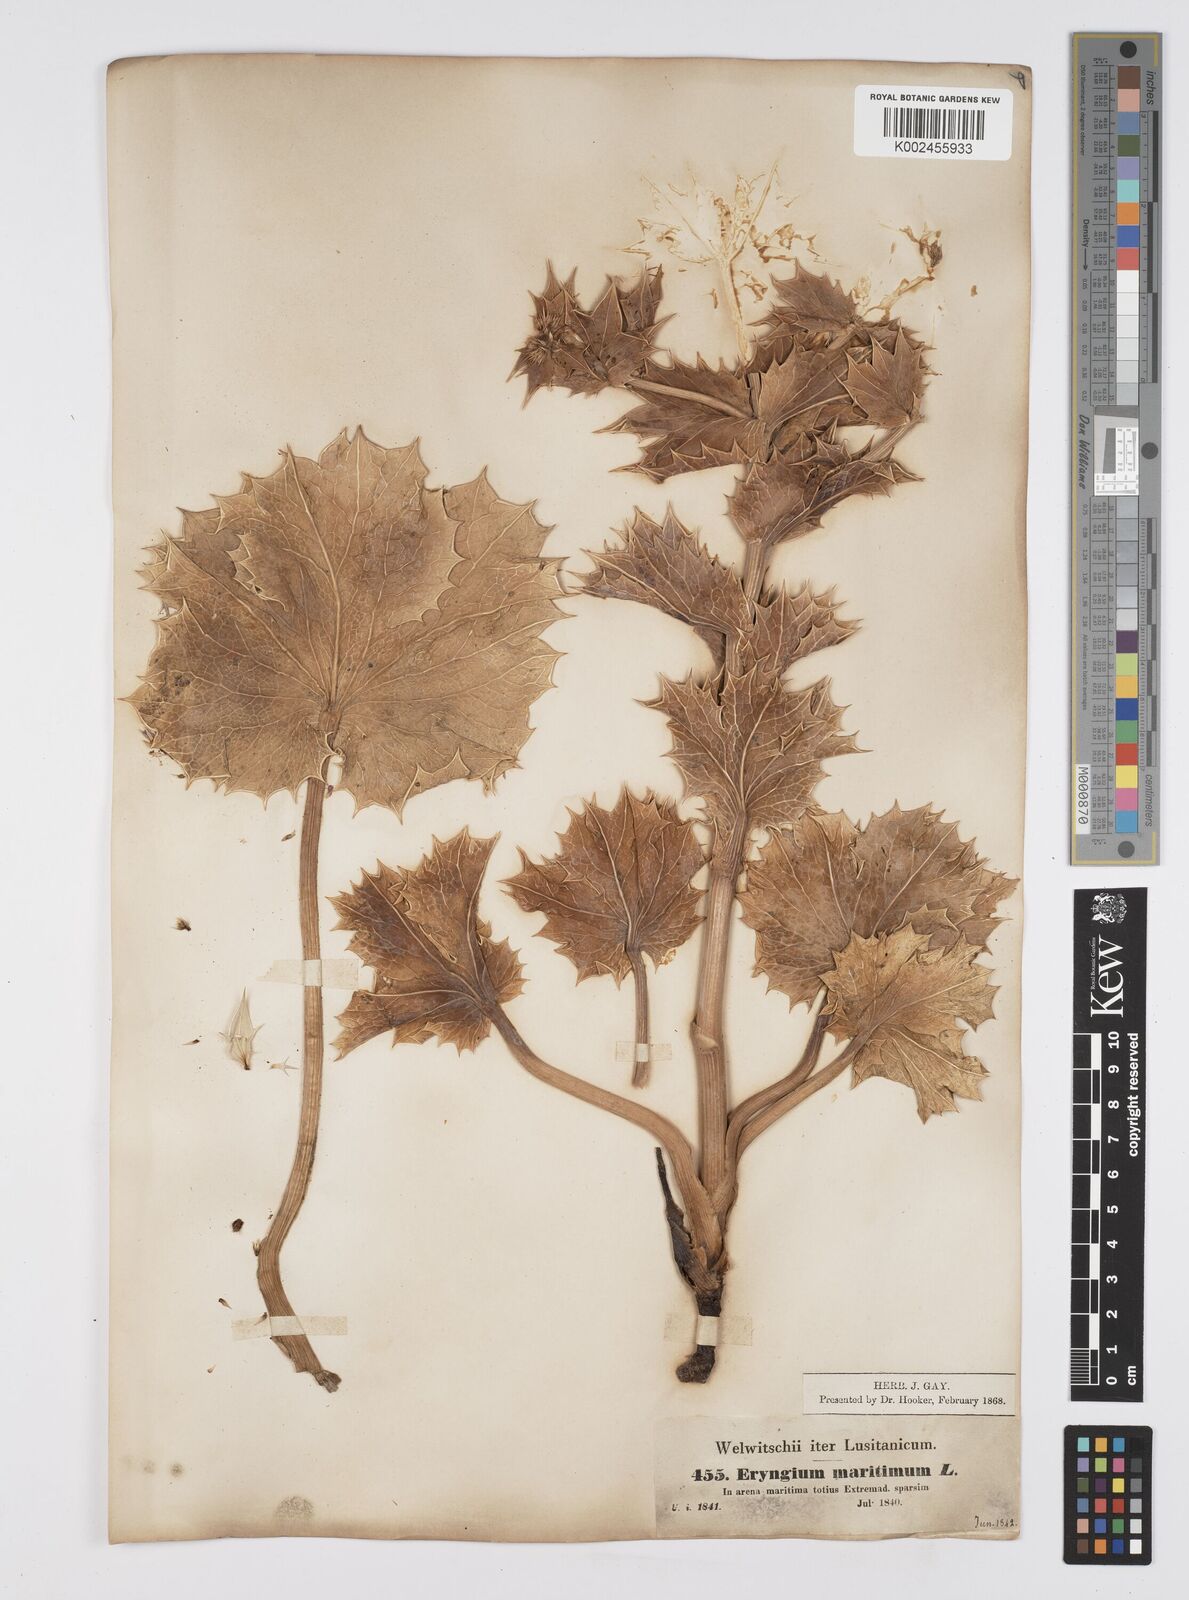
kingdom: Plantae
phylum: Tracheophyta
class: Magnoliopsida
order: Apiales
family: Apiaceae
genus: Eryngium
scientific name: Eryngium maritimum
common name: Sea-holly
